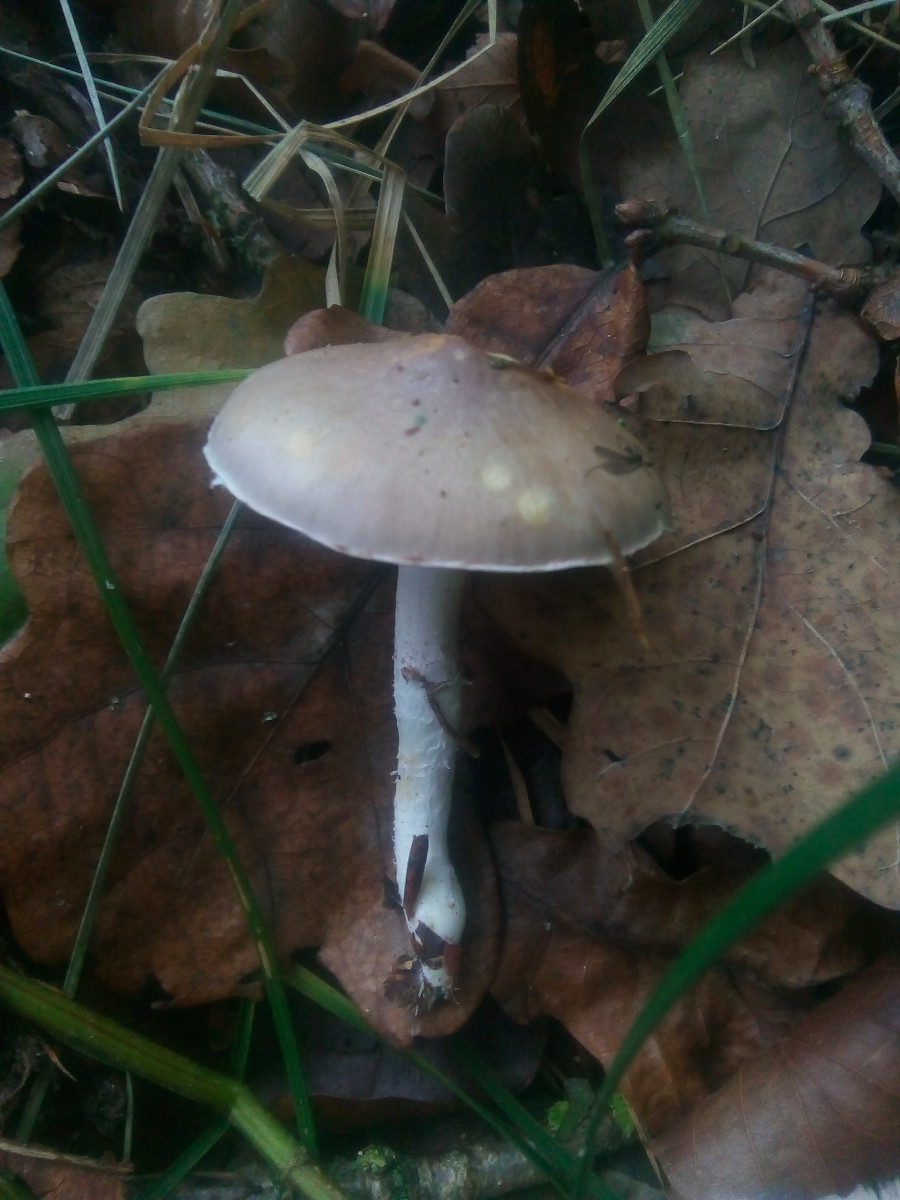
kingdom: Fungi
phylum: Basidiomycota
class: Agaricomycetes
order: Agaricales
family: Strophariaceae
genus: Stropharia
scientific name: Stropharia inuncta
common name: lillabrun bredblad
